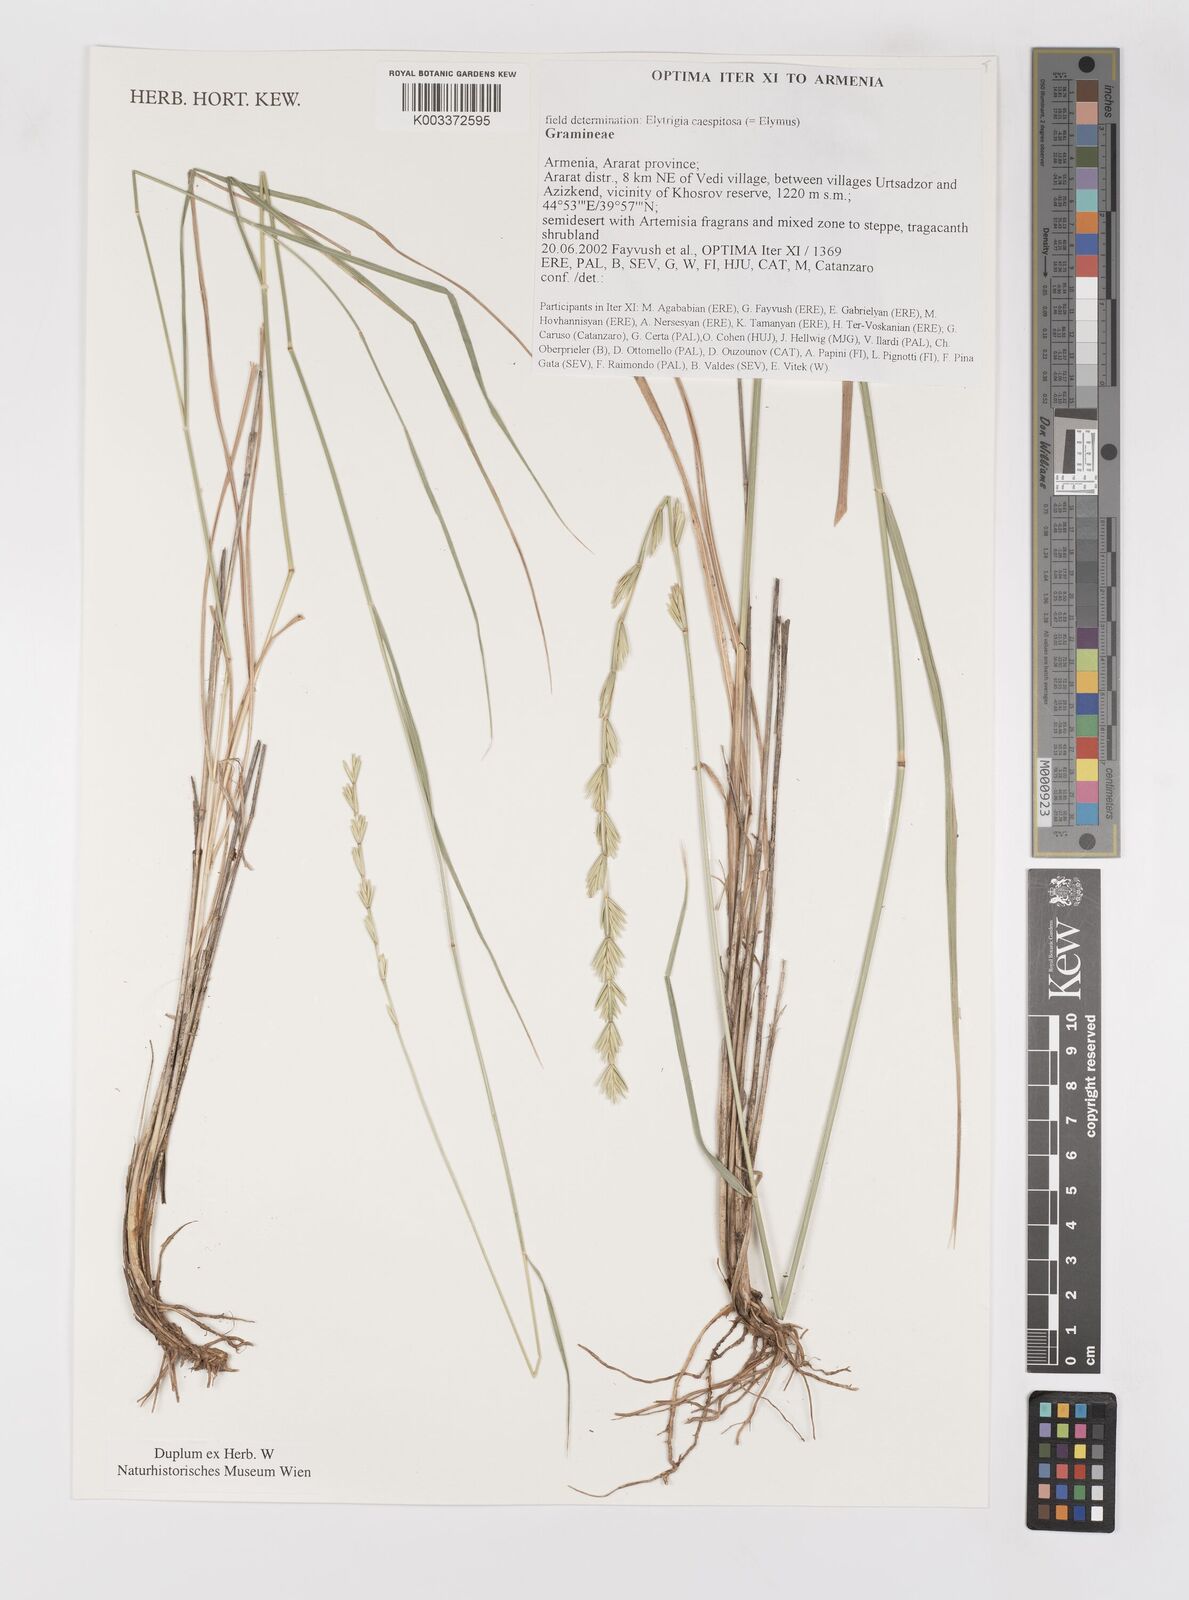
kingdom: Plantae
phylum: Tracheophyta
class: Liliopsida
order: Poales
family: Poaceae
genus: Elymus
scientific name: Elymus
